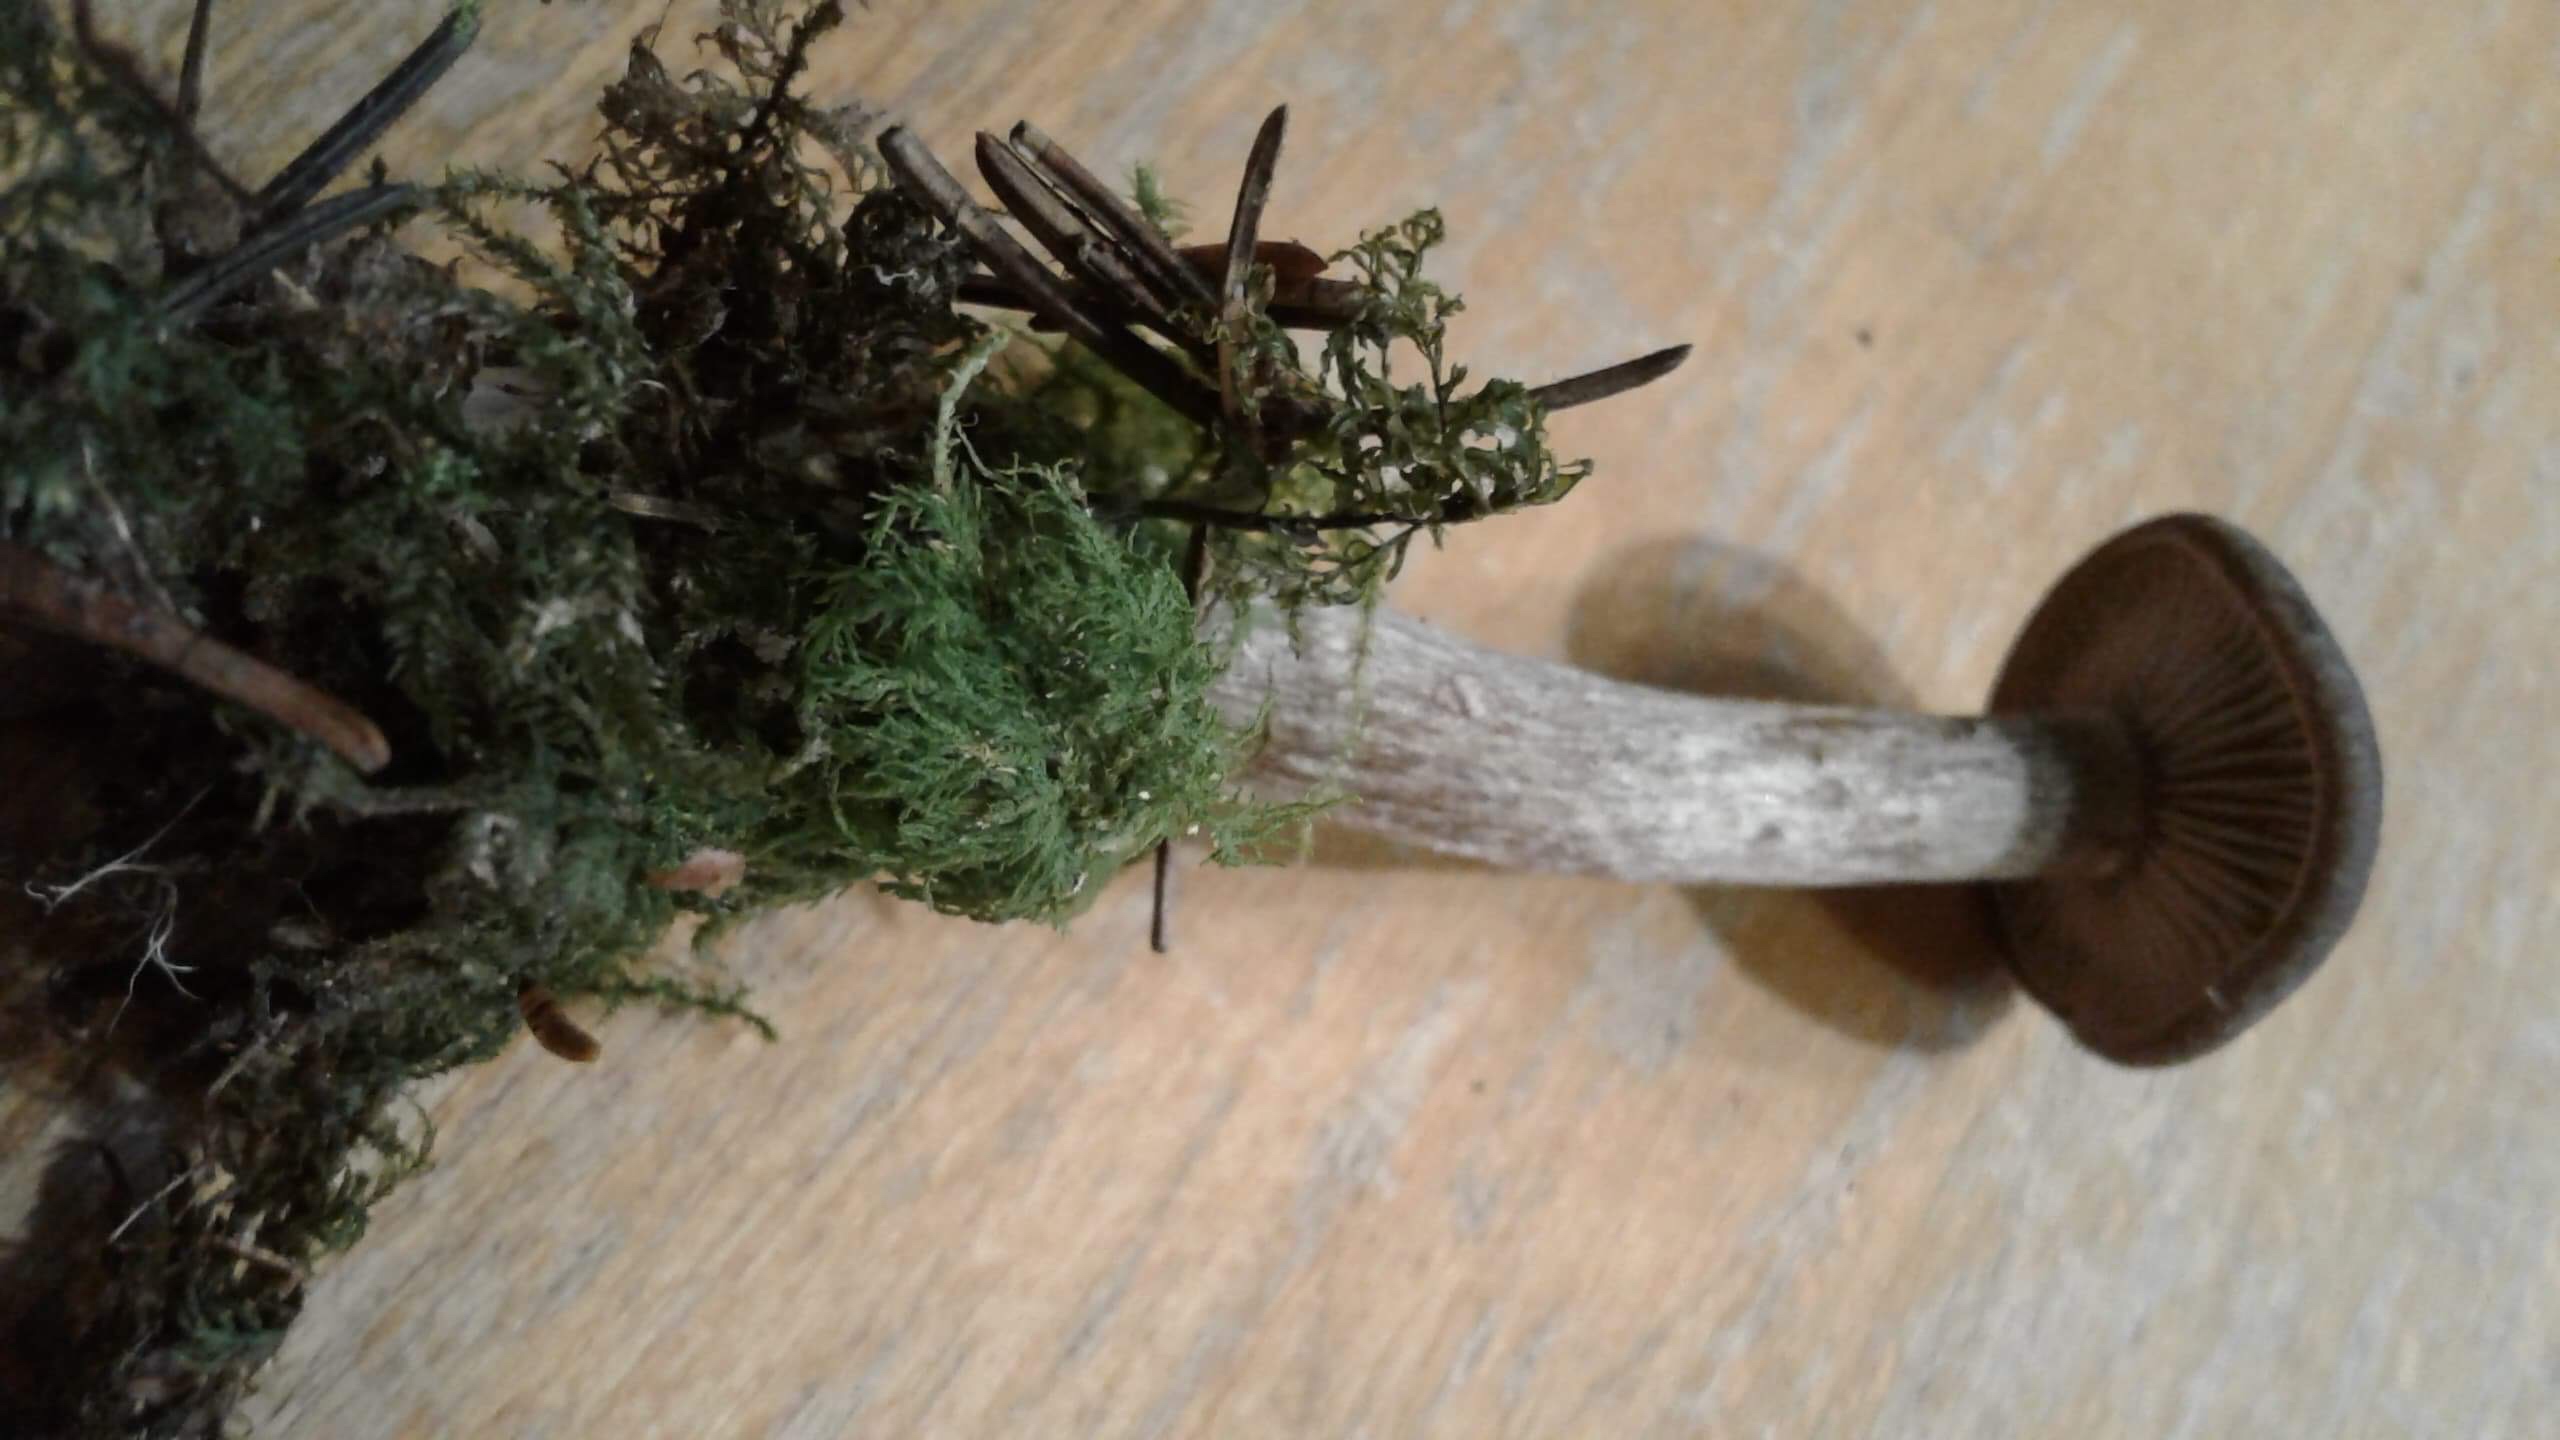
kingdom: Fungi
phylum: Basidiomycota
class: Agaricomycetes
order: Agaricales
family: Pseudoclitocybaceae
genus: Pseudoclitocybe
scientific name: Pseudoclitocybe cyathiformis
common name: almindelig bægertragthat
